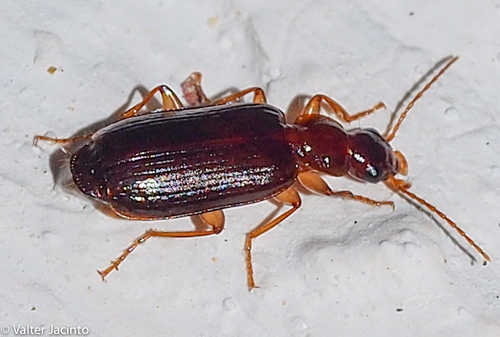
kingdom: Animalia
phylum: Arthropoda
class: Insecta
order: Coleoptera
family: Carabidae
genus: Dromius
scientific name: Dromius
